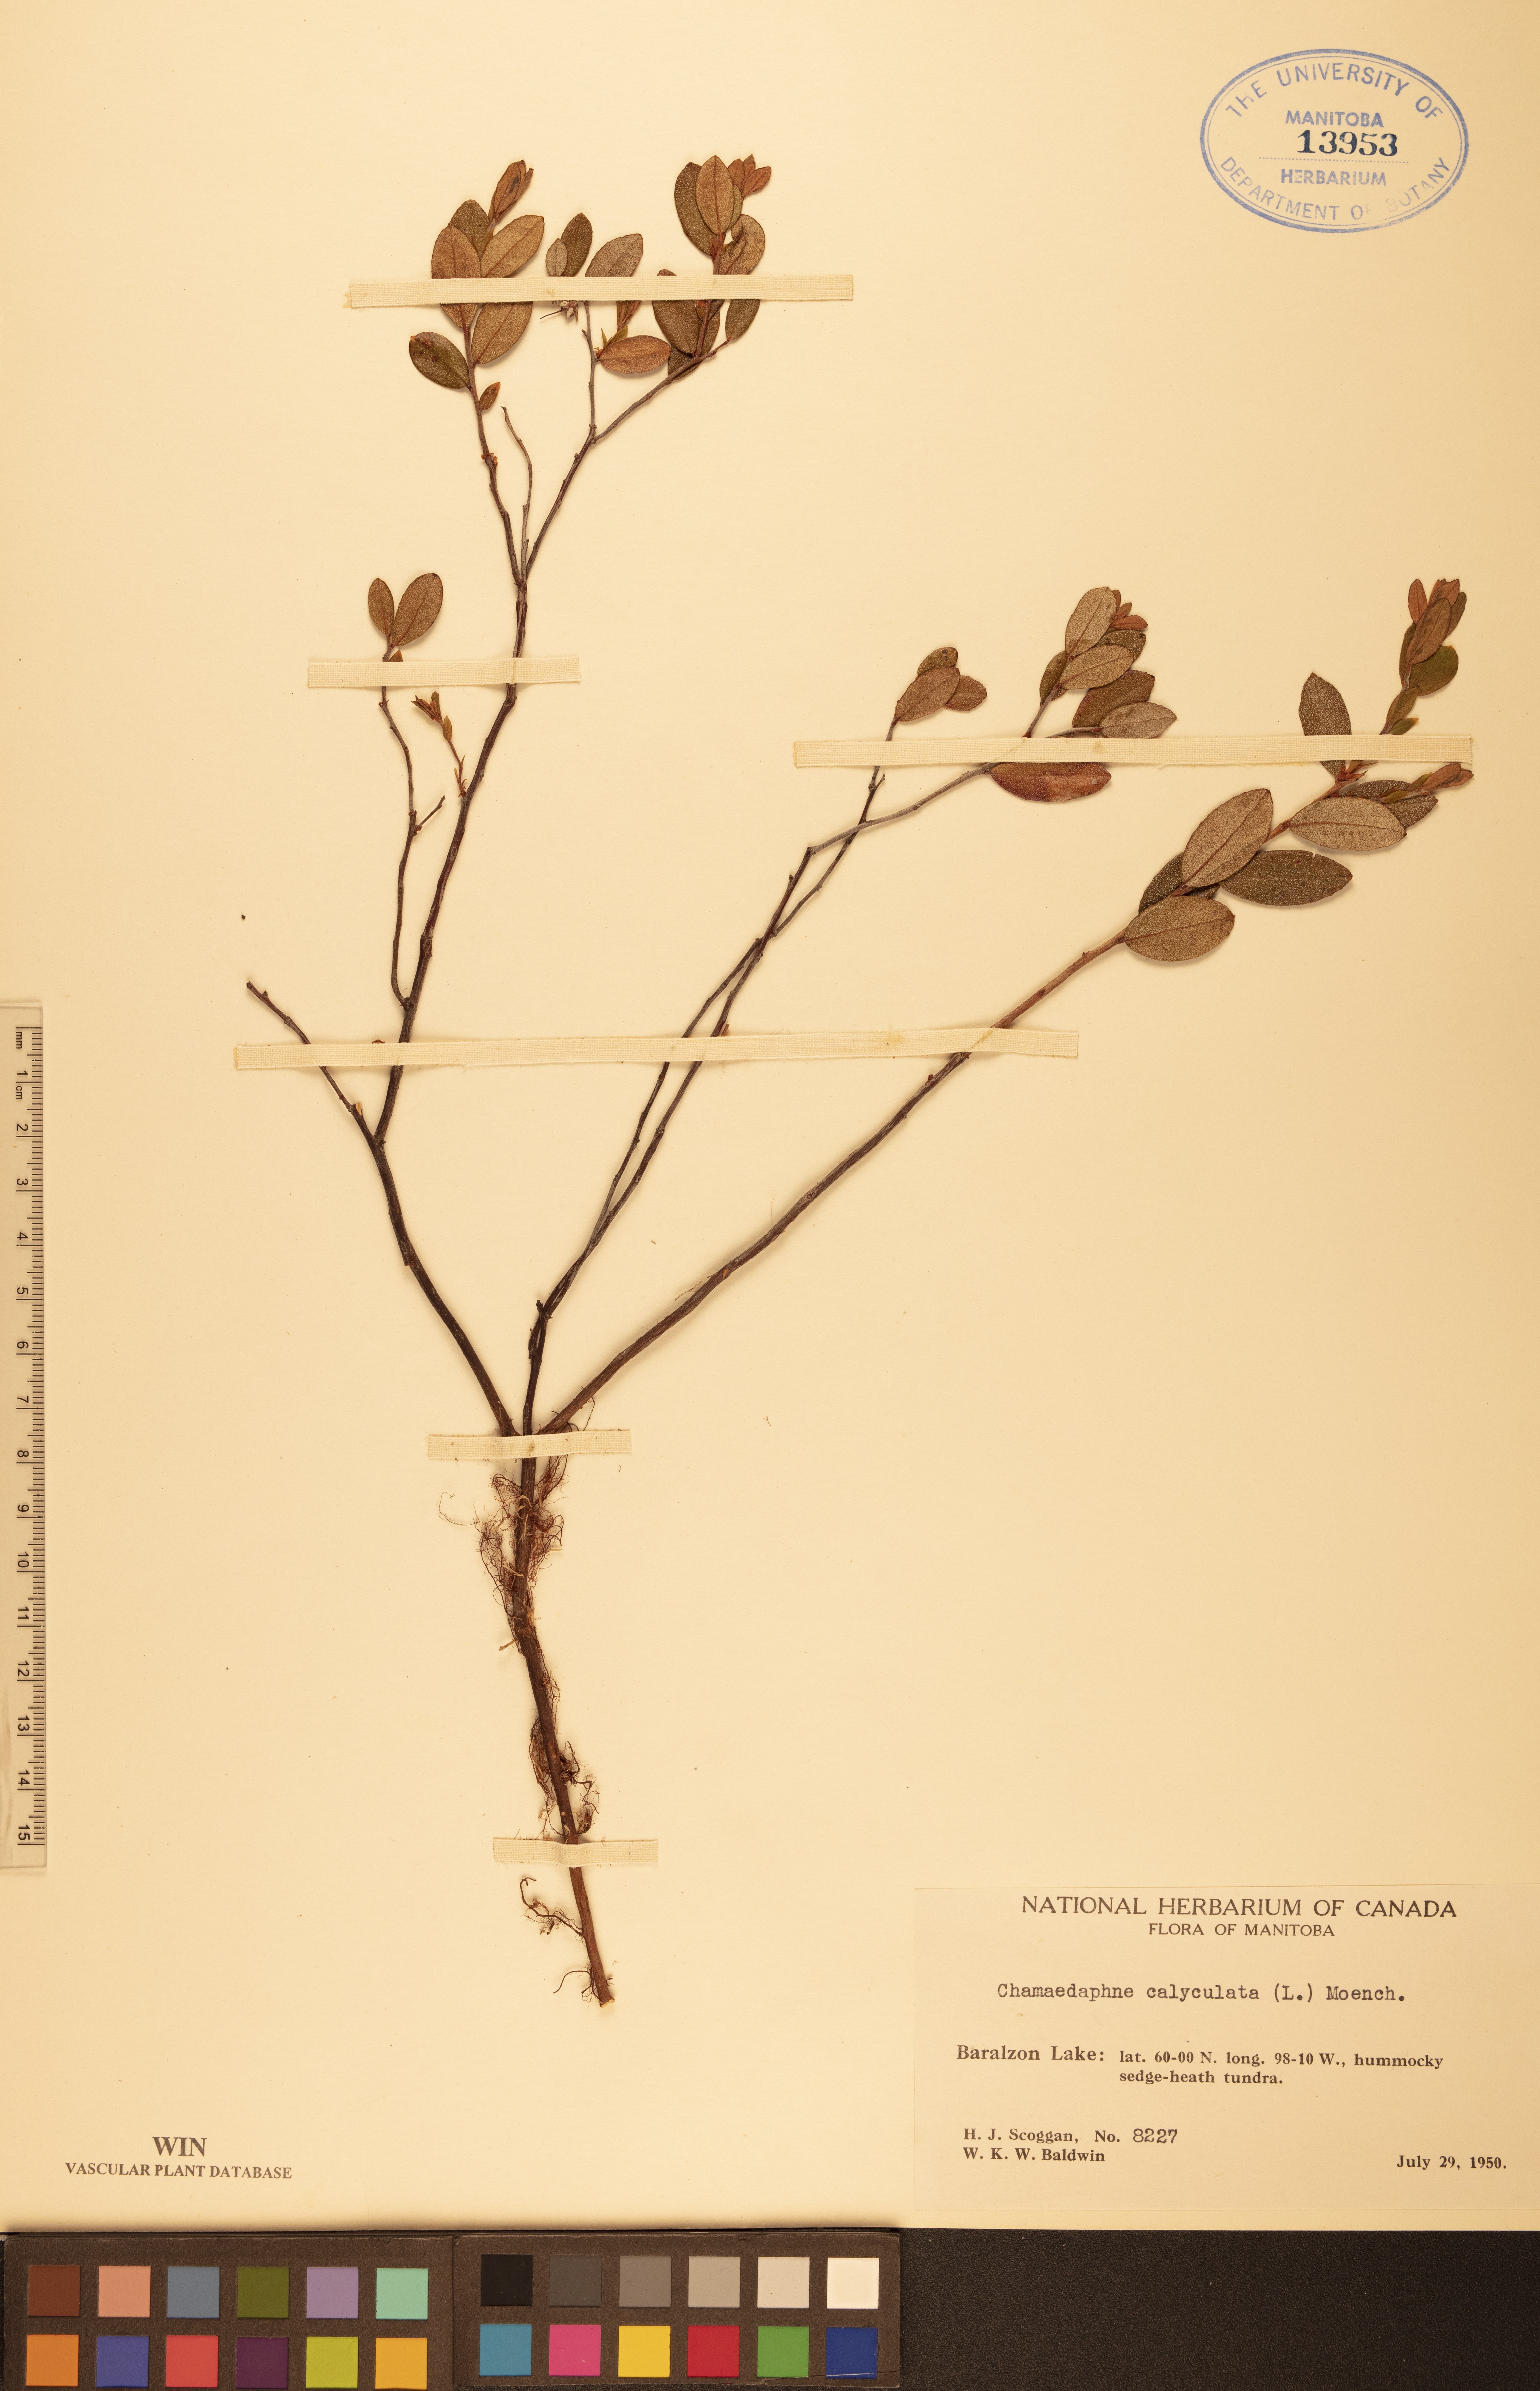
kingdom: Plantae
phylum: Tracheophyta
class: Magnoliopsida
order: Ericales
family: Ericaceae
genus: Chamaedaphne
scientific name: Chamaedaphne calyculata
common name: Leatherleaf
